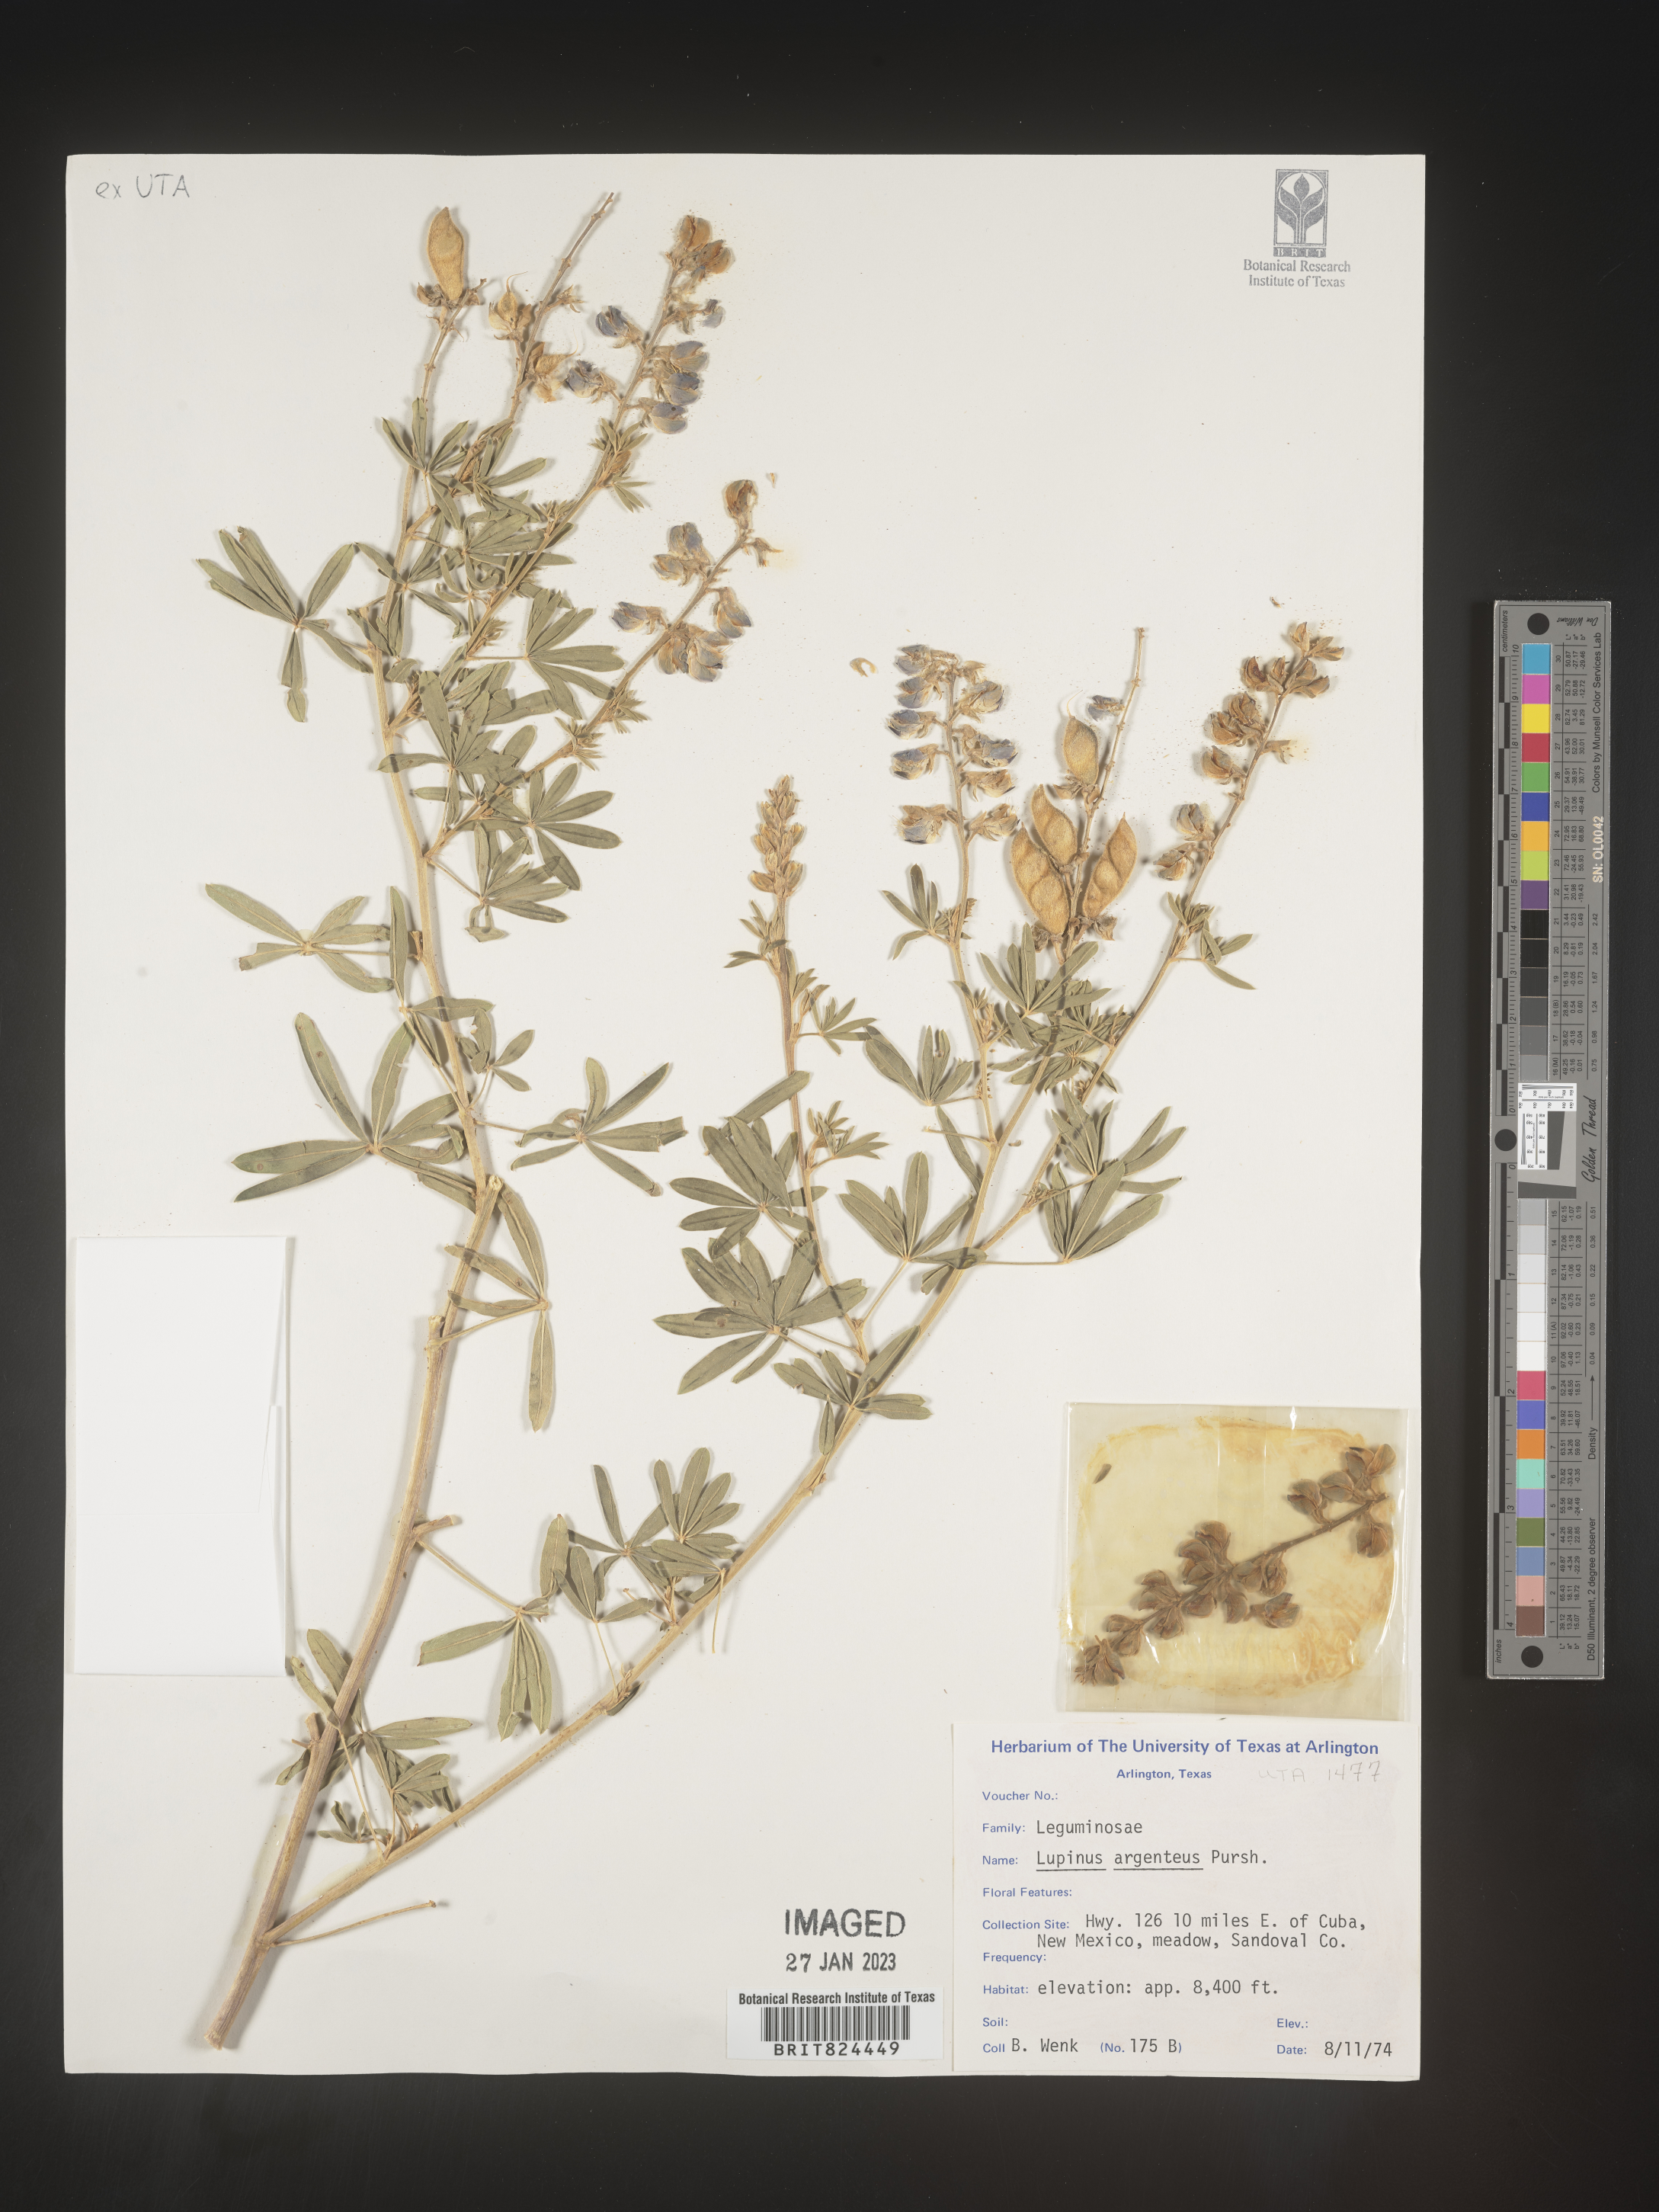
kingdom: Plantae
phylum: Tracheophyta
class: Magnoliopsida
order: Fabales
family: Fabaceae
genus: Lupinus
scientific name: Lupinus argenteus
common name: Silvery lupine
